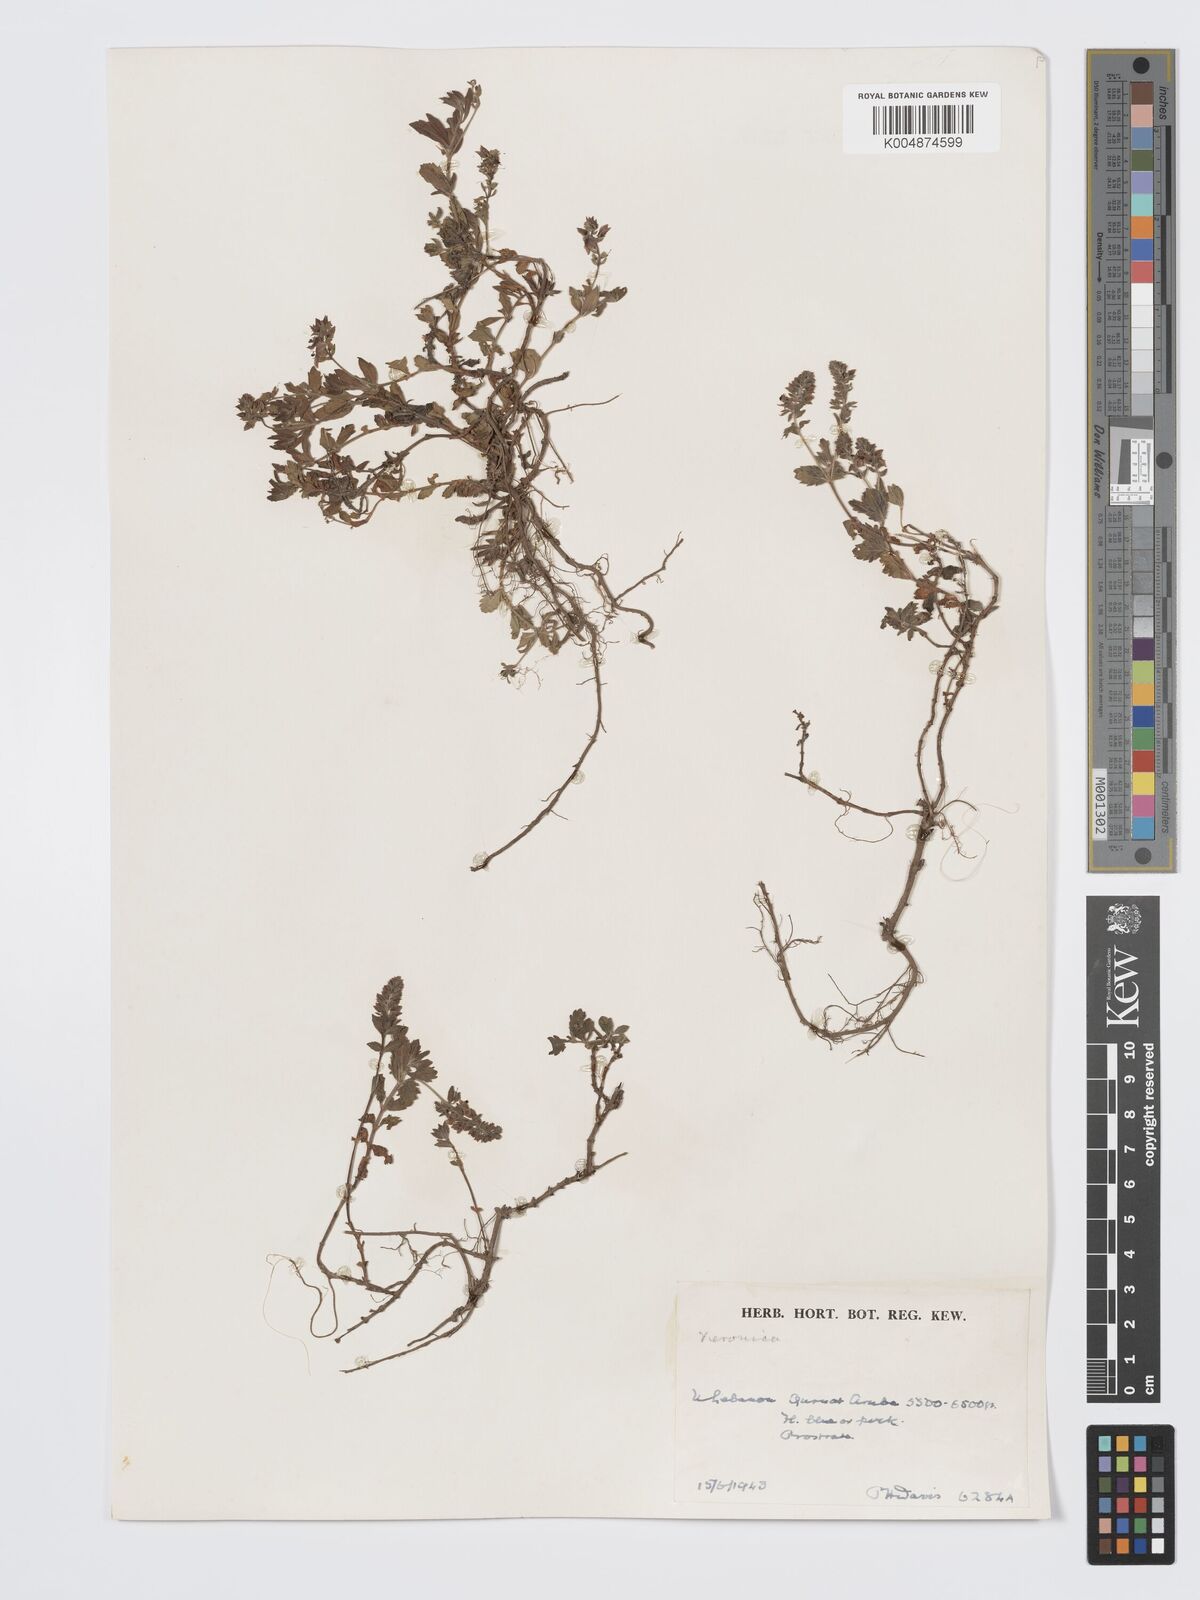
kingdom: Plantae
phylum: Tracheophyta
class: Magnoliopsida
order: Lamiales
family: Plantaginaceae
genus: Veronica
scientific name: Veronica
